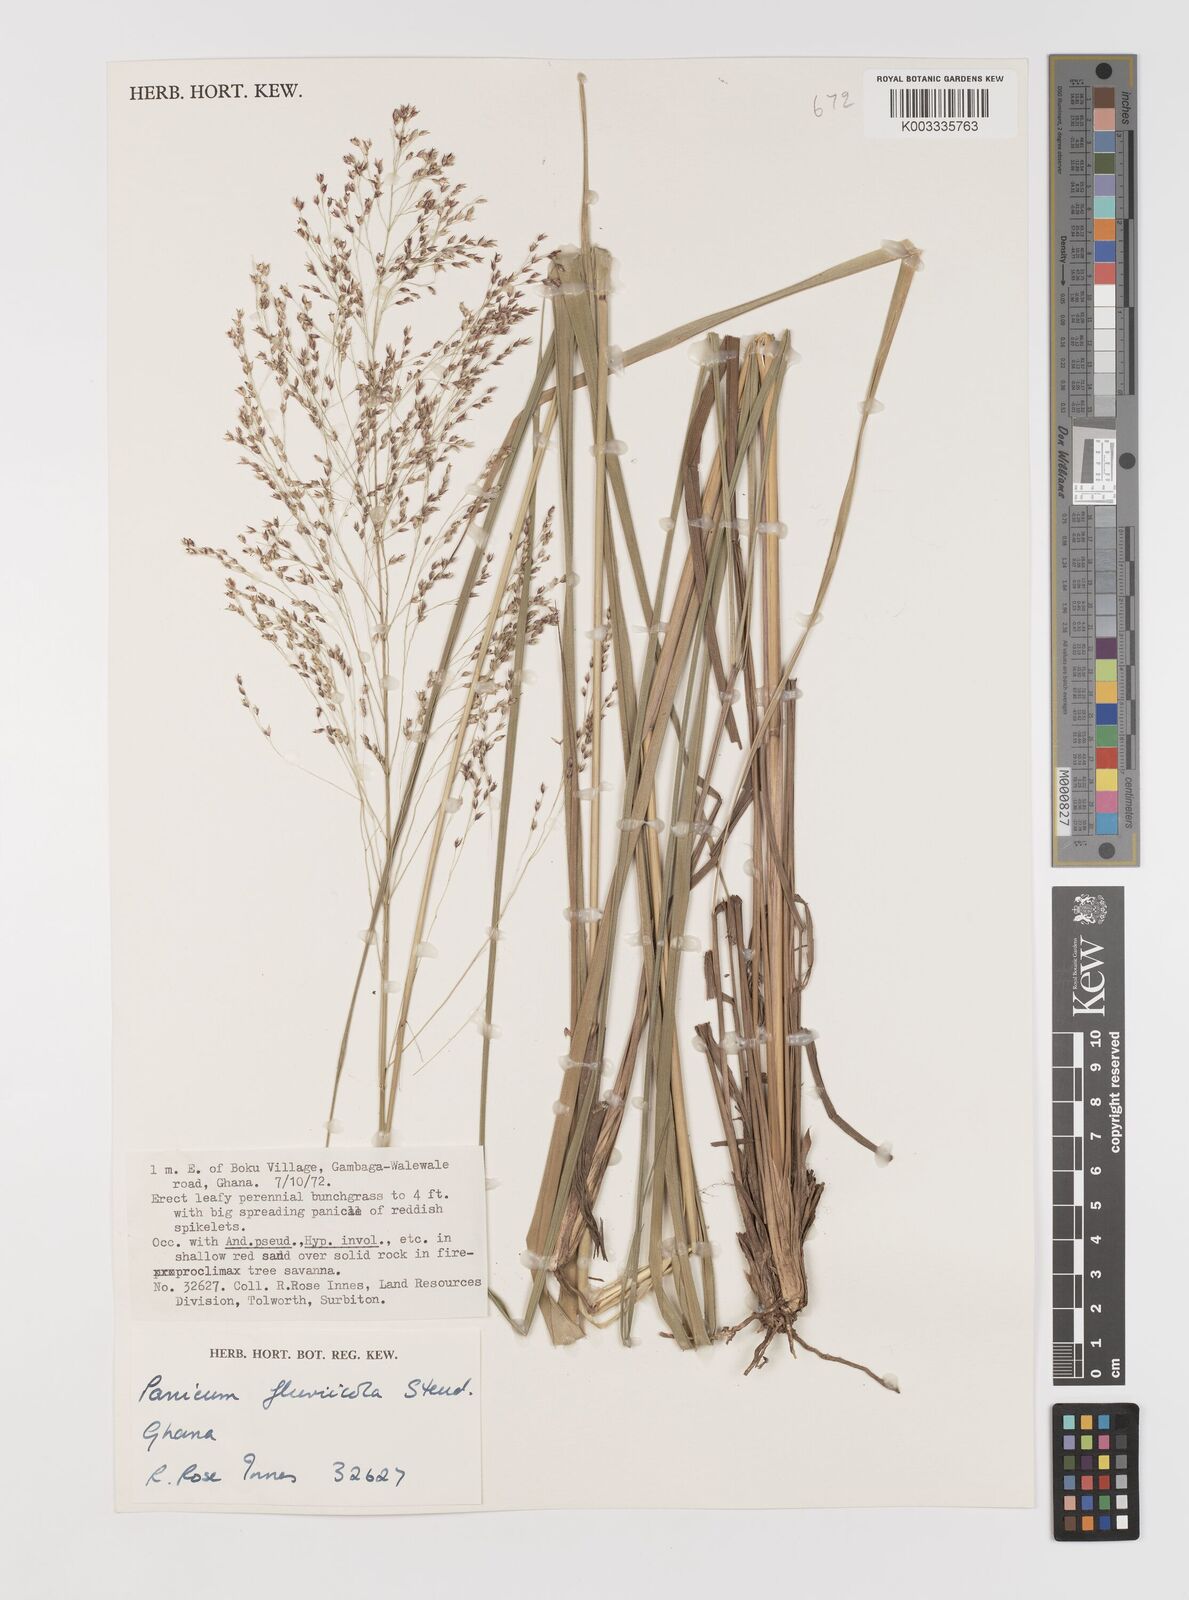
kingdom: Plantae
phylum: Tracheophyta
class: Liliopsida
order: Poales
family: Poaceae
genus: Panicum
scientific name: Panicum fluviicola
